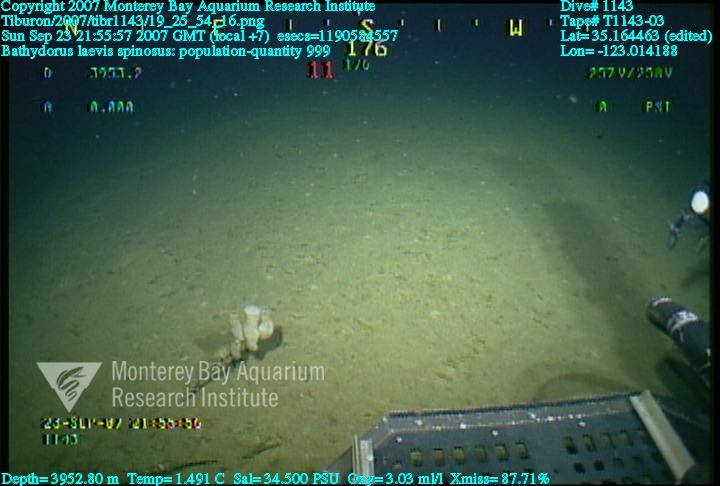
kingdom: Animalia
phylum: Porifera
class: Hexactinellida
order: Lyssacinosida
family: Rossellidae
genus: Bathydorus
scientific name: Bathydorus spinosus
